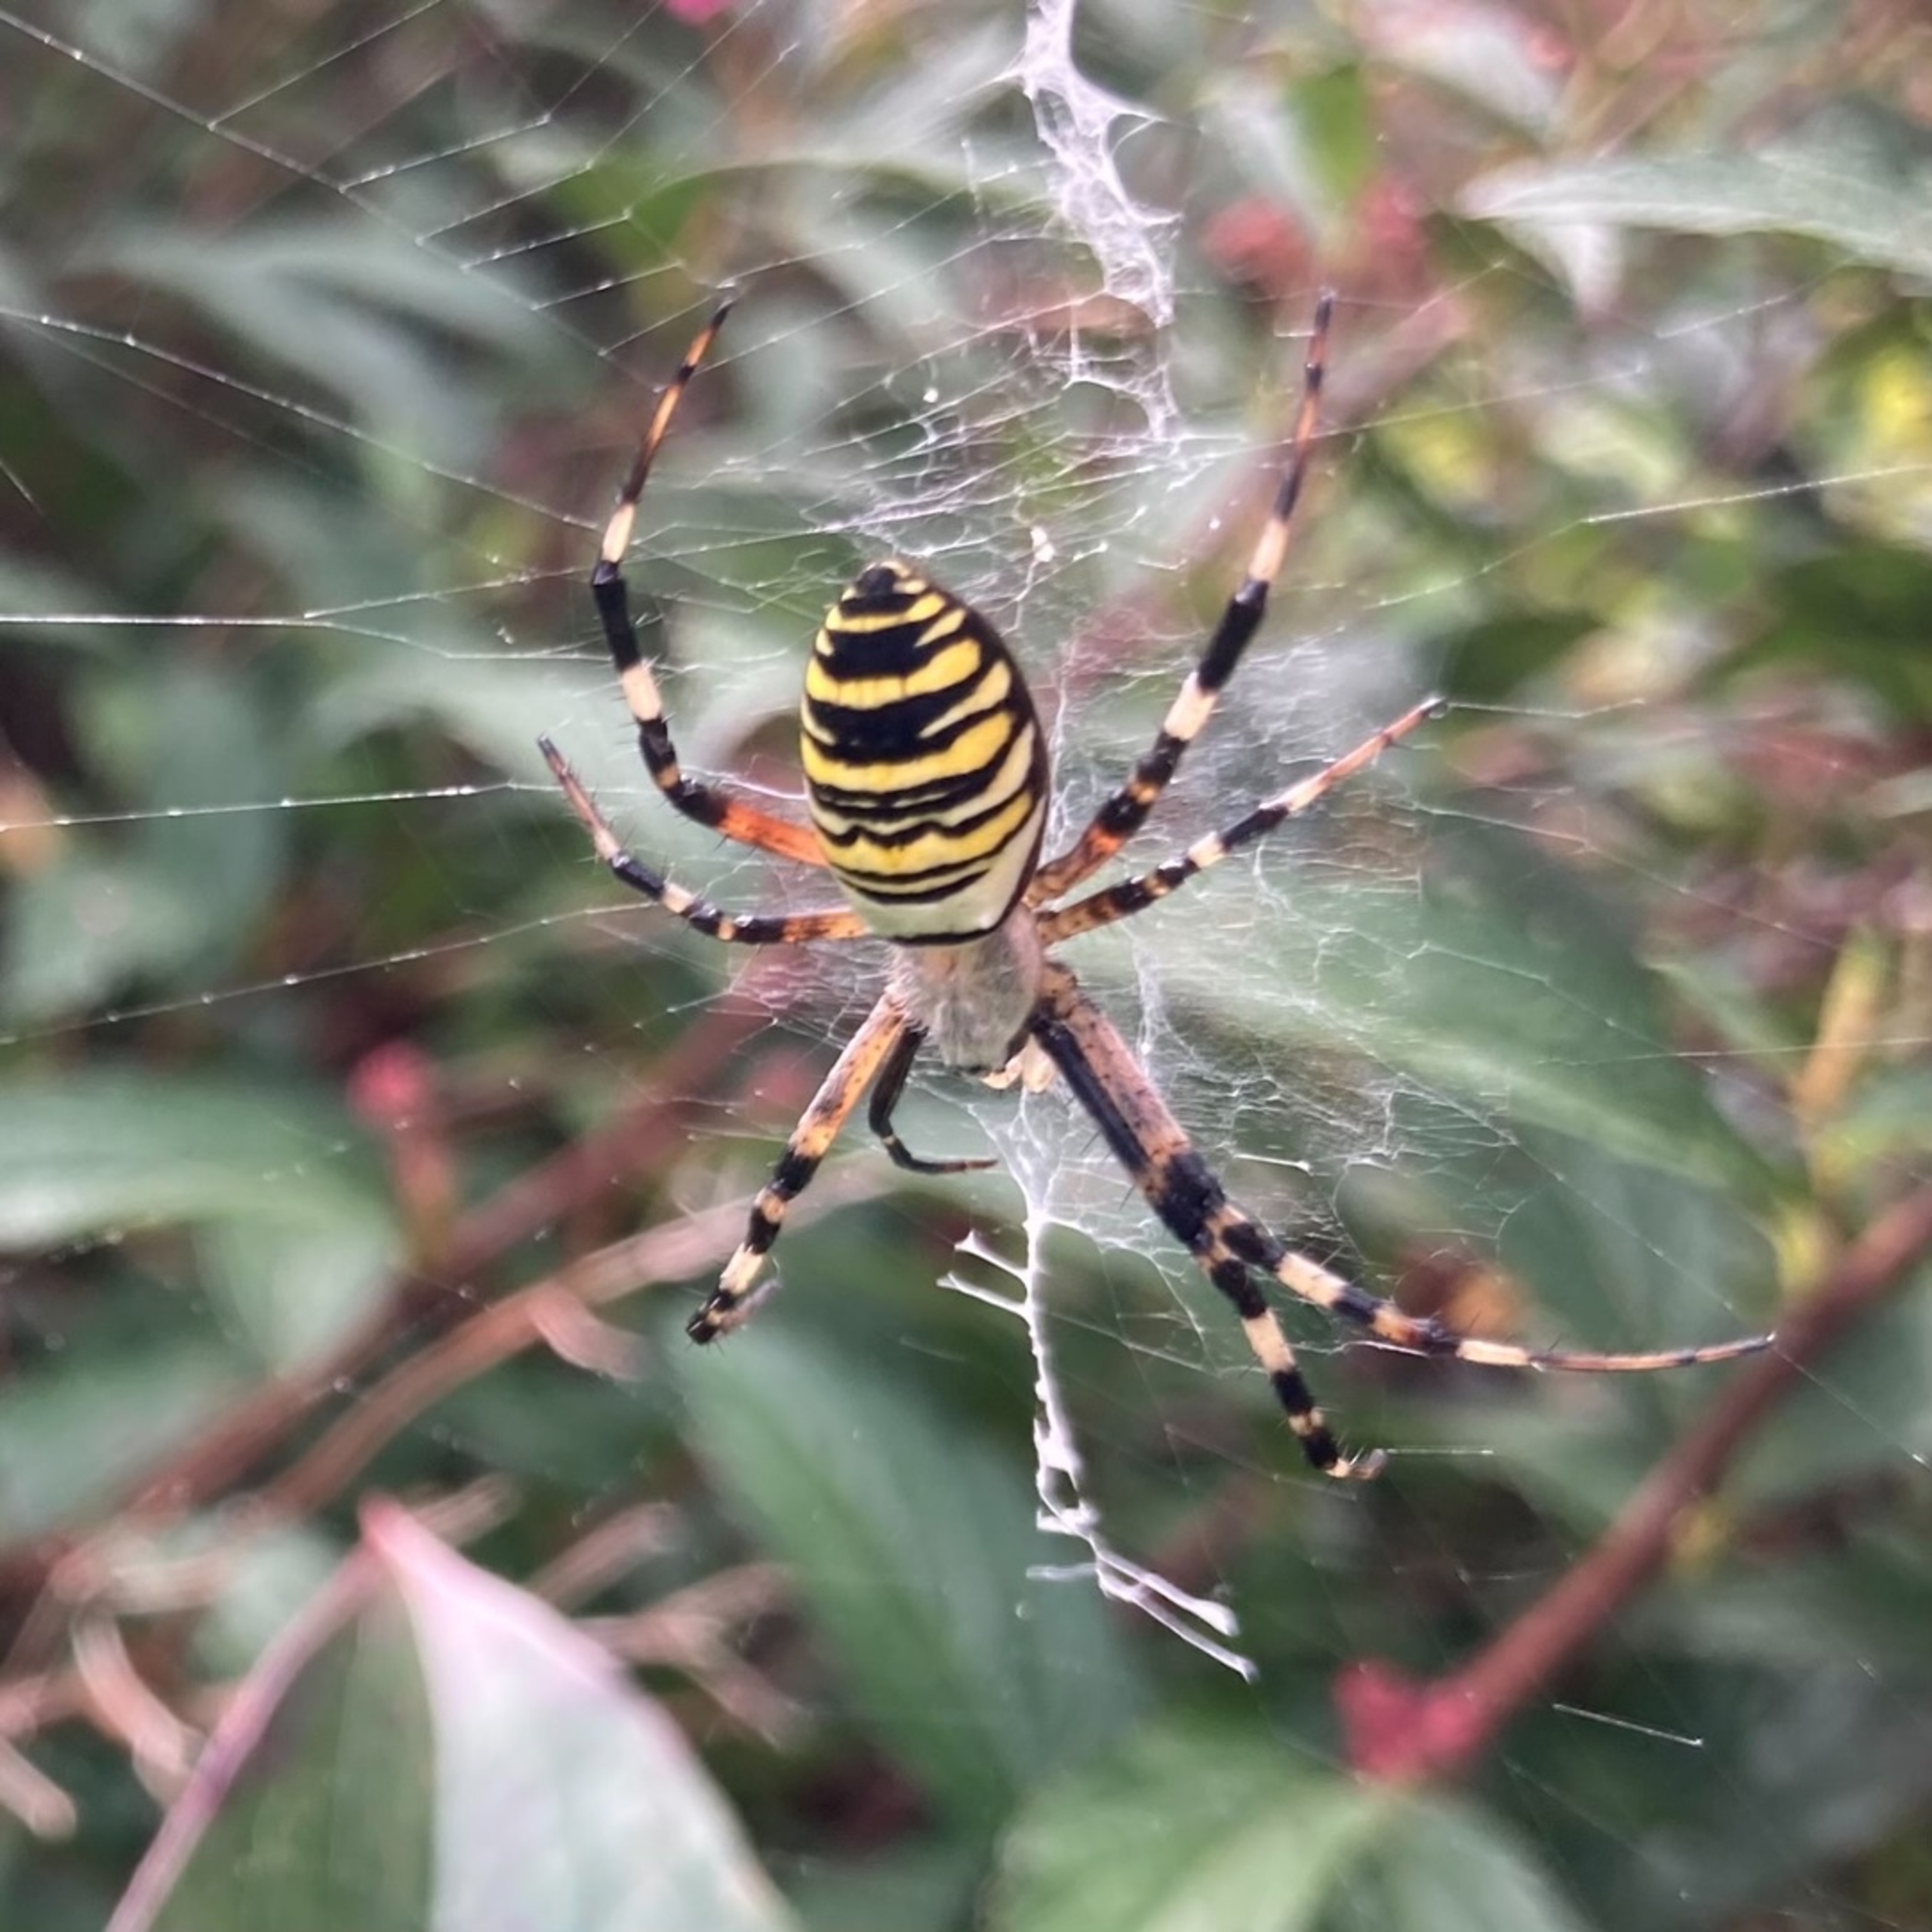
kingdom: Animalia
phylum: Arthropoda
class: Arachnida
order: Araneae
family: Araneidae
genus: Argiope
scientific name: Argiope bruennichi
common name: Hvepseedderkop
